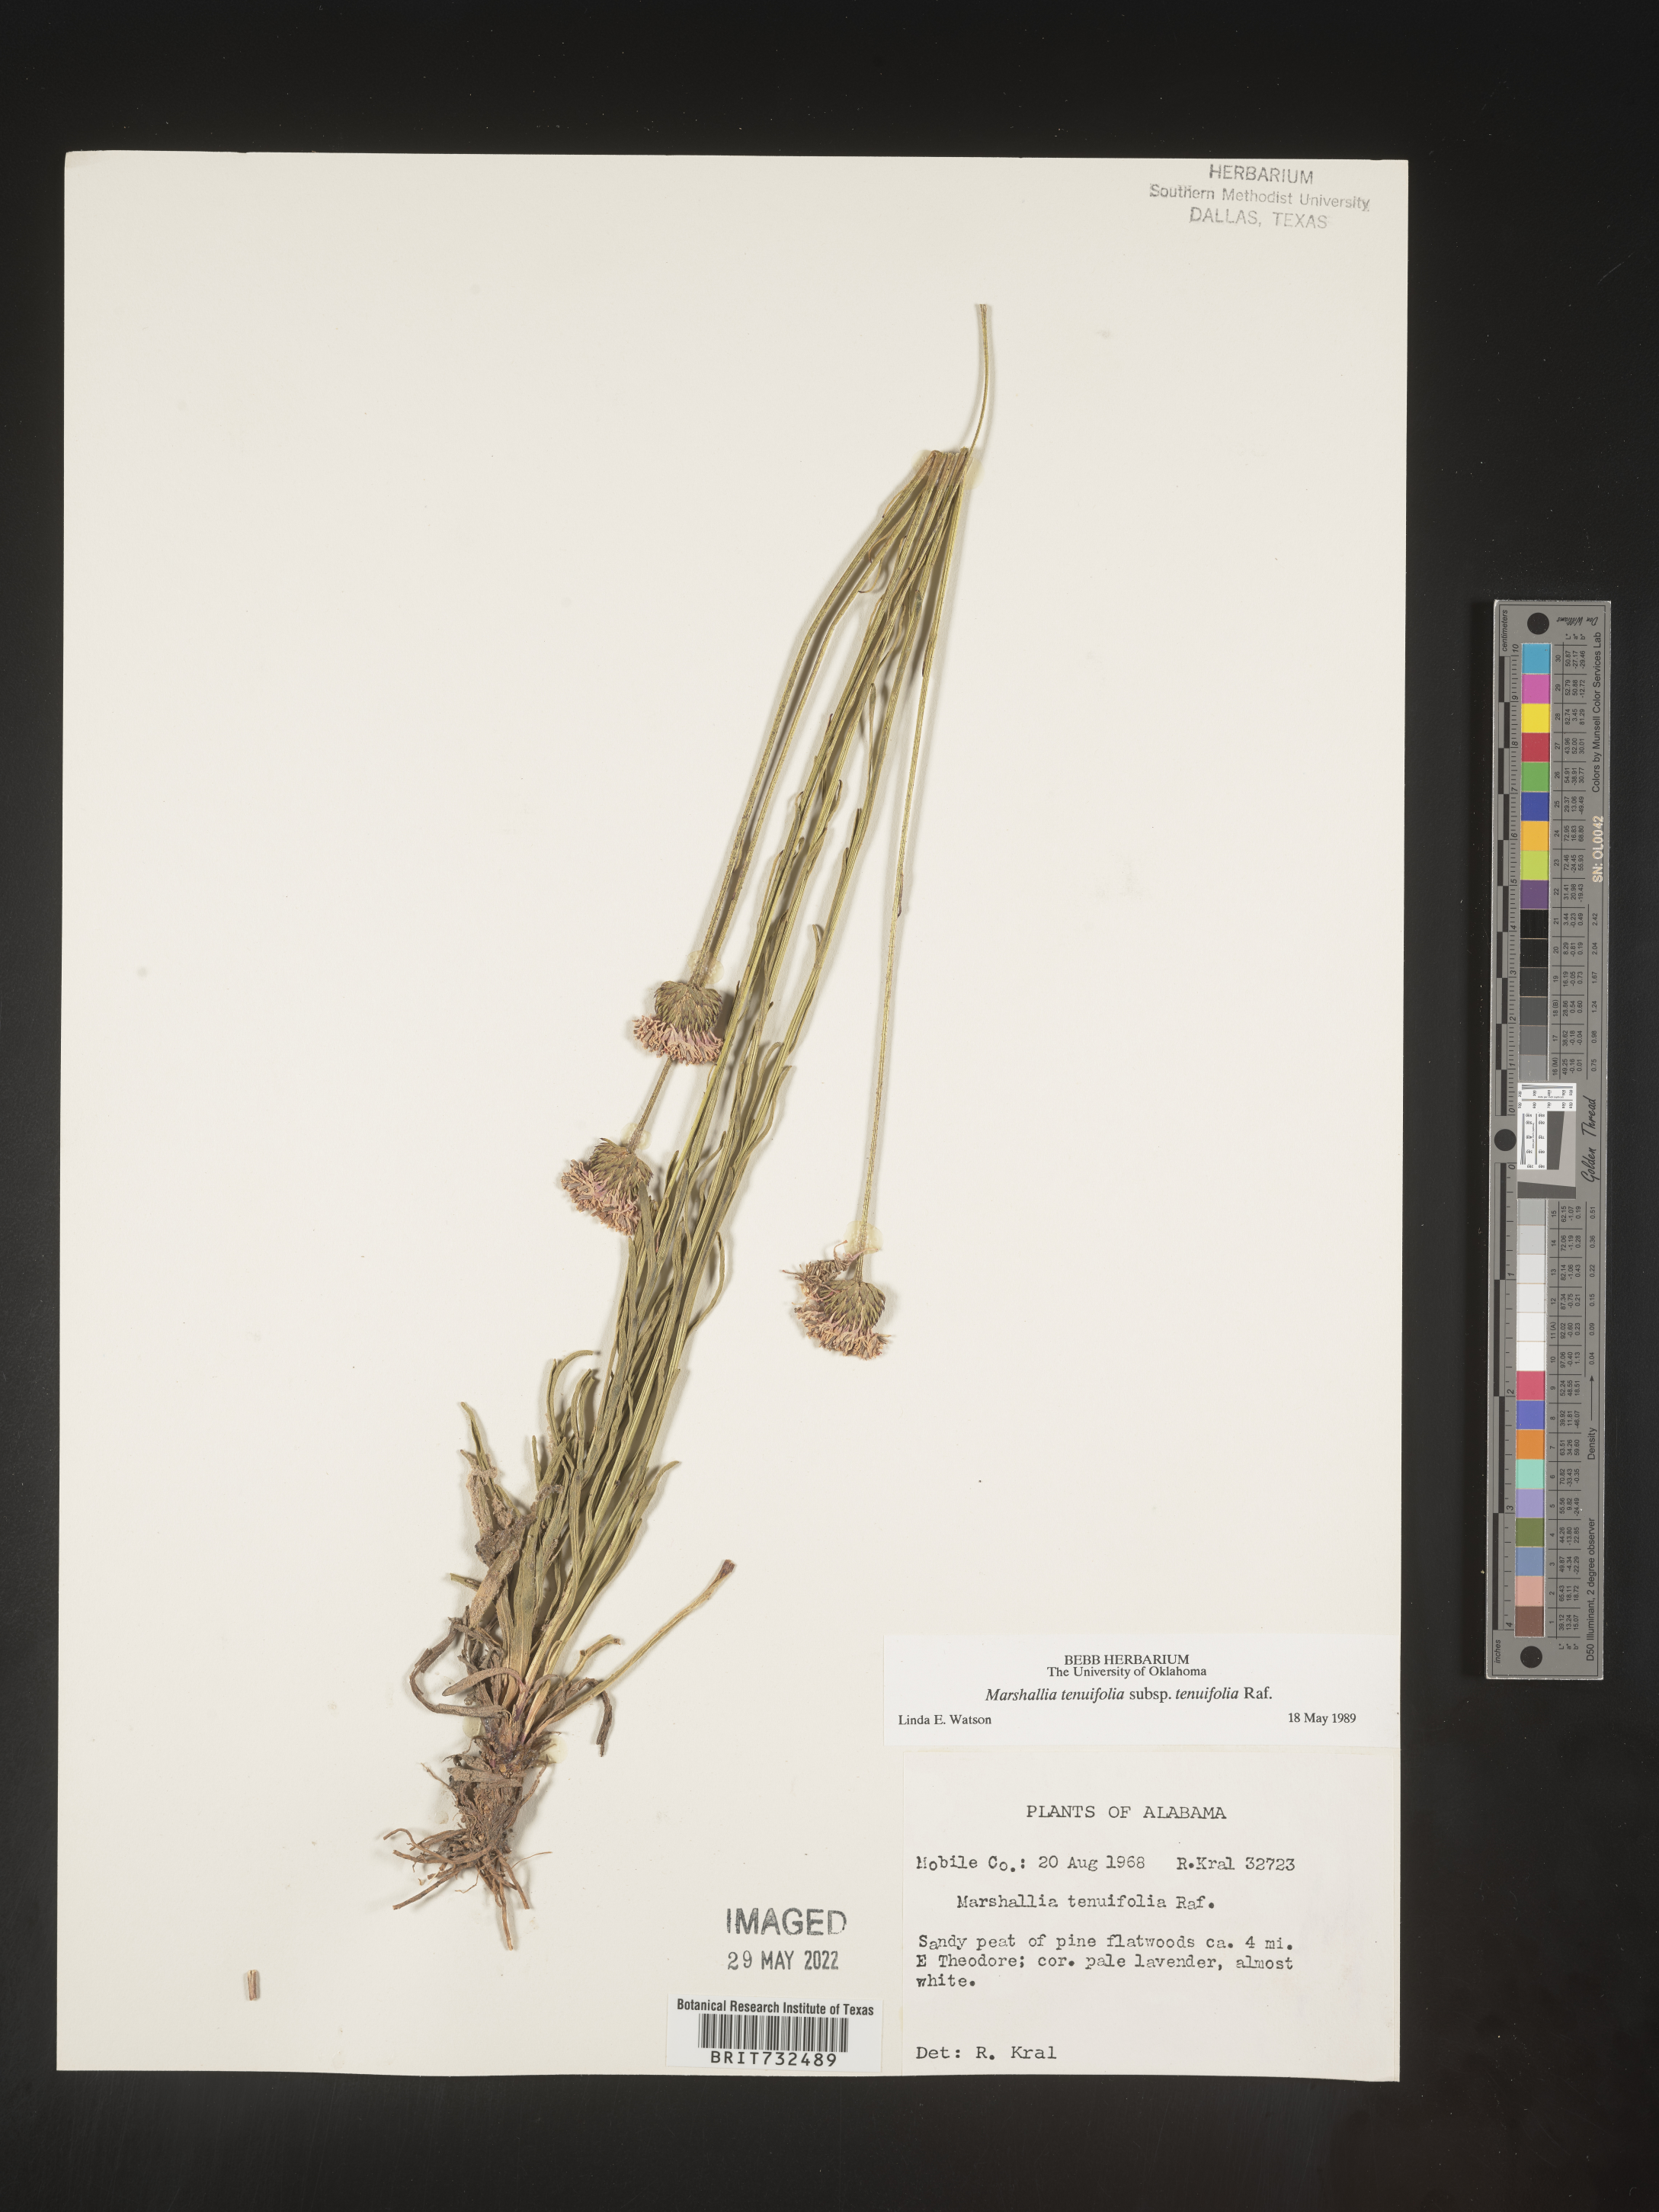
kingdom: Plantae
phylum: Tracheophyta
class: Magnoliopsida
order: Asterales
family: Asteraceae
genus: Vernonia
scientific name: Vernonia angustifolia
